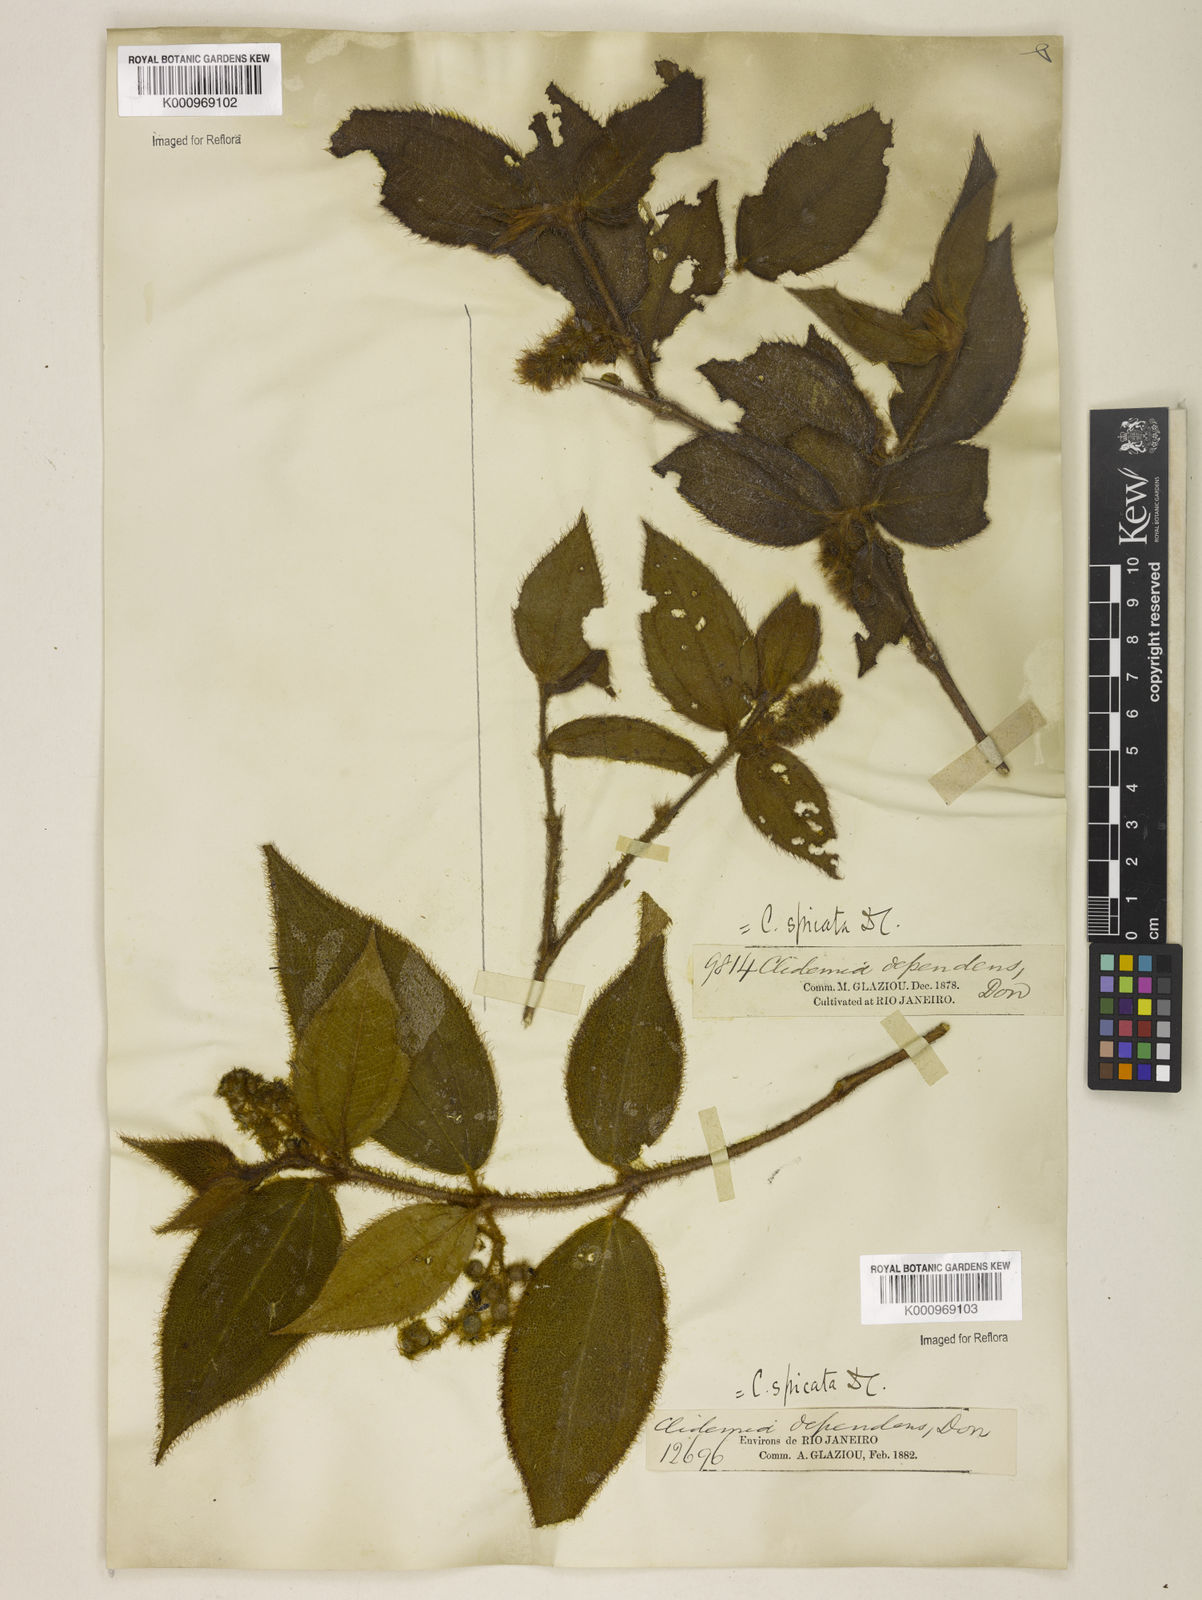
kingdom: Plantae
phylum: Tracheophyta
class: Magnoliopsida
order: Myrtales
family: Melastomataceae
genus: Miconia
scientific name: Miconia dependens
